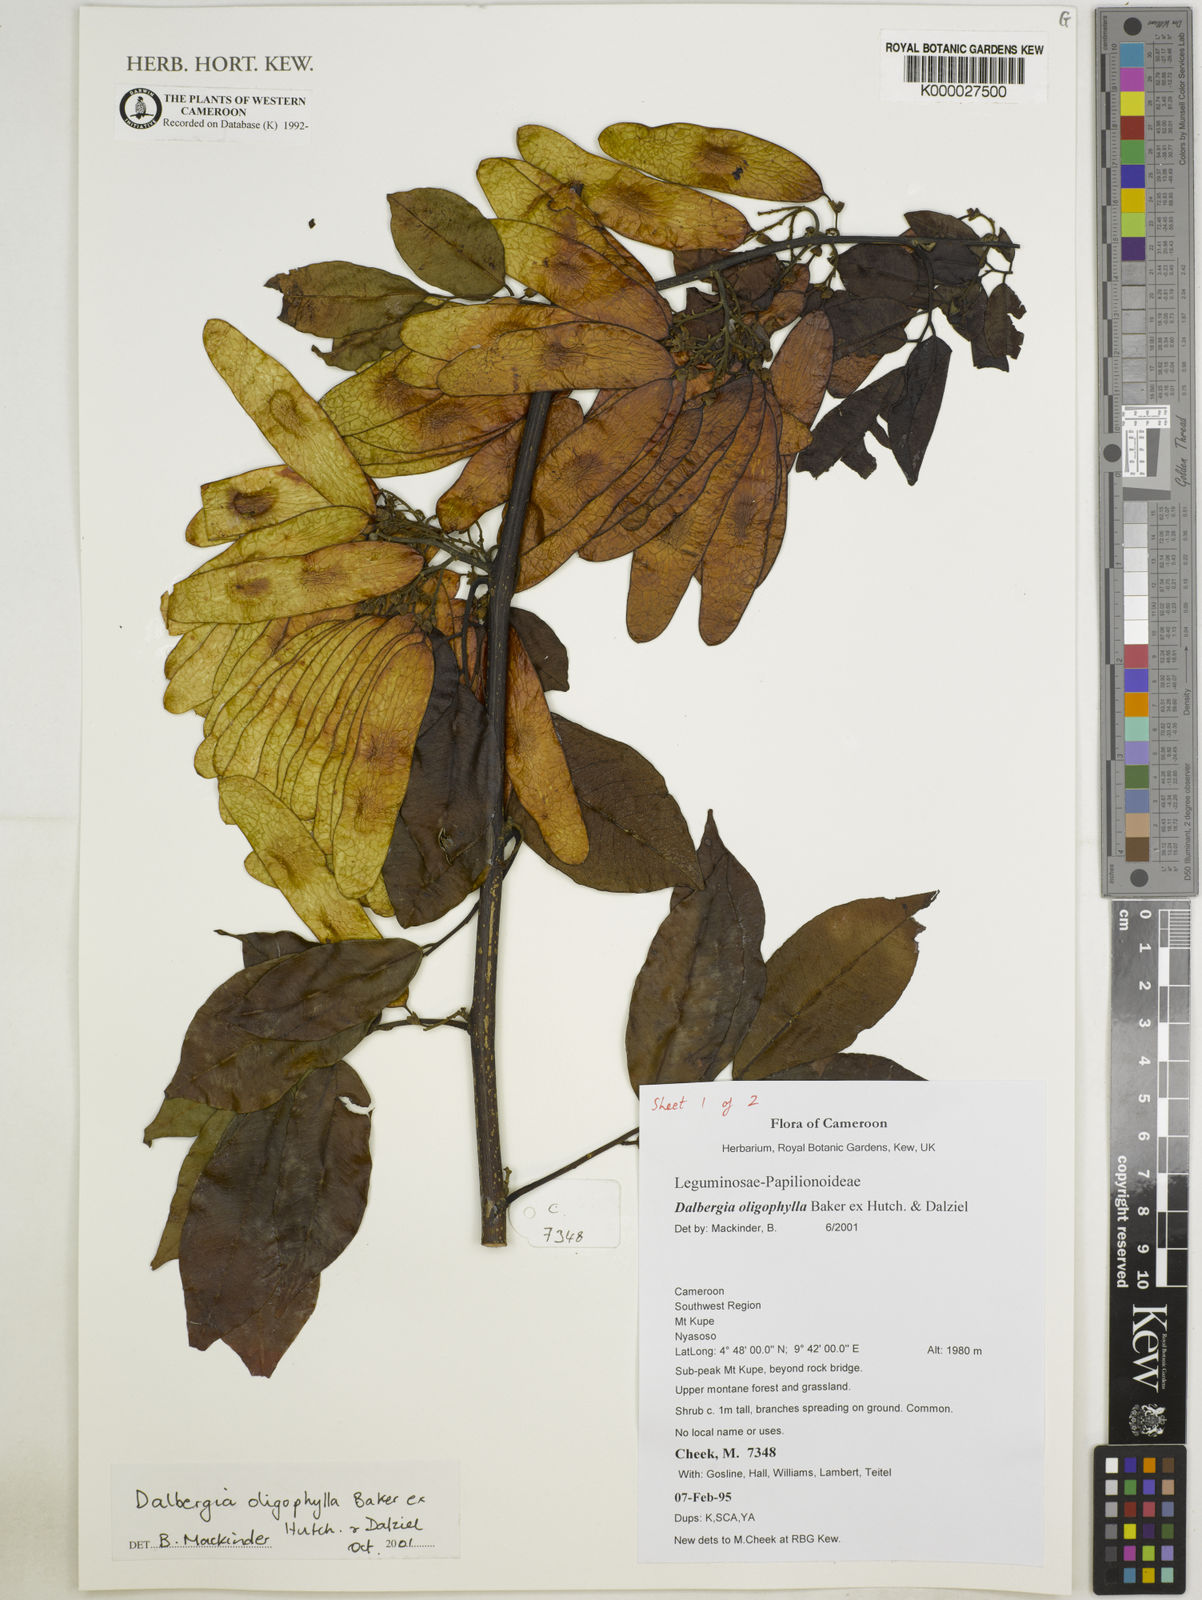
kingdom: Plantae
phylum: Tracheophyta
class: Magnoliopsida
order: Fabales
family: Fabaceae
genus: Dalbergia
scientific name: Dalbergia oligophylla
